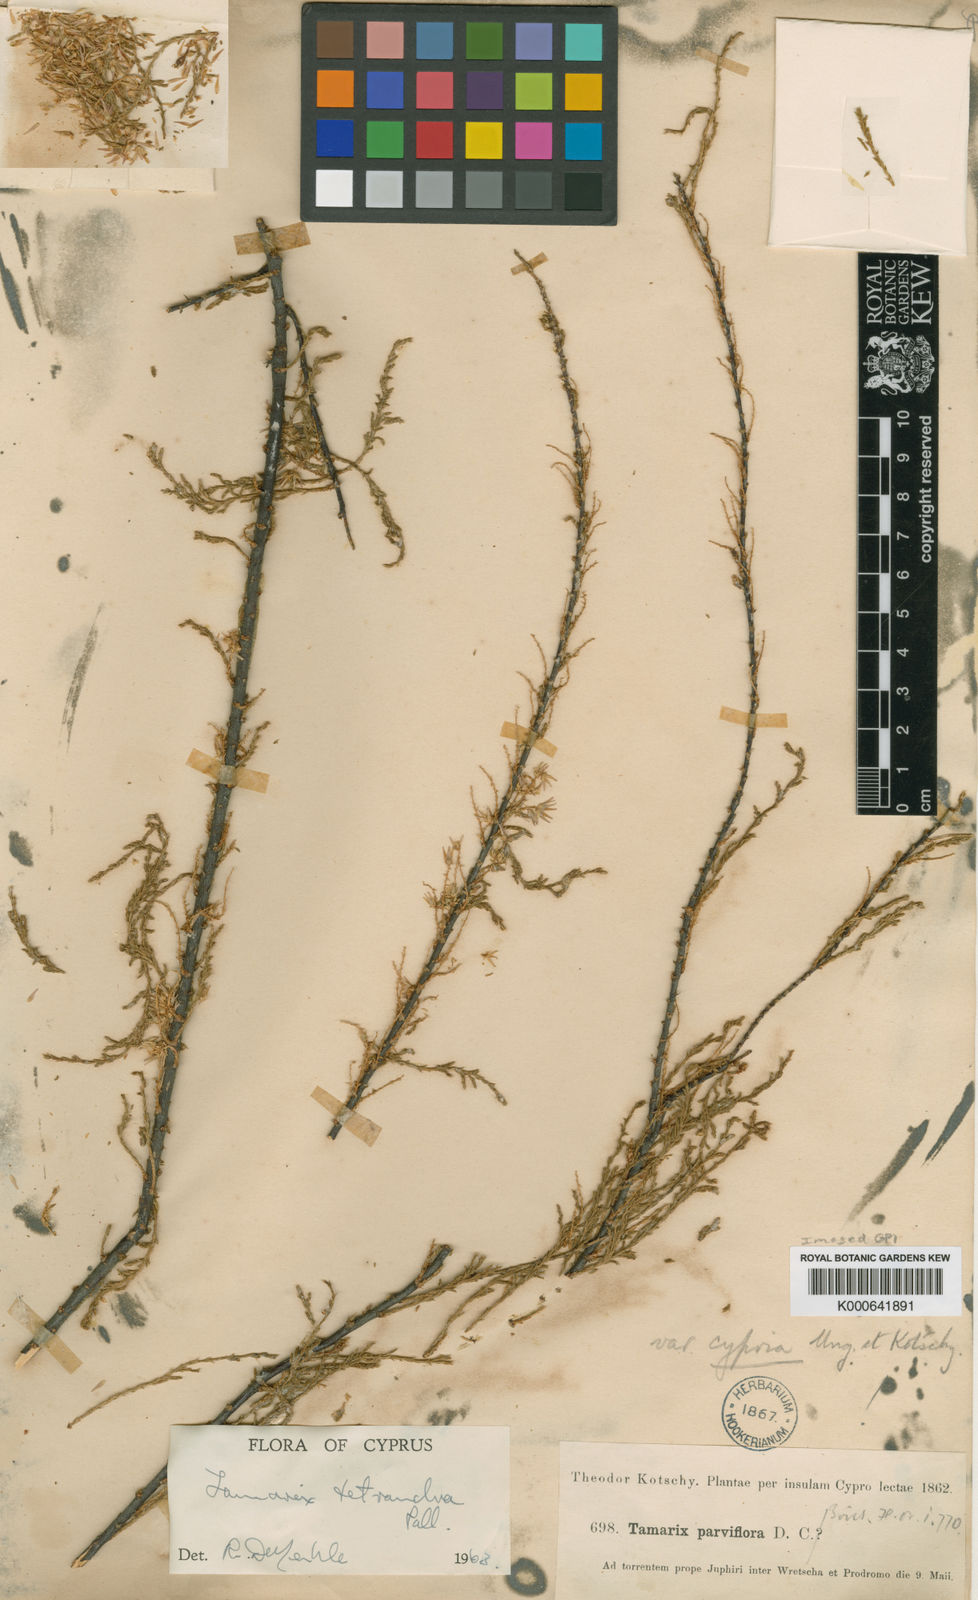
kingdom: Plantae
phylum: Tracheophyta
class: Magnoliopsida
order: Caryophyllales
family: Tamaricaceae
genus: Tamarix
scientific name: Tamarix tetrandra
